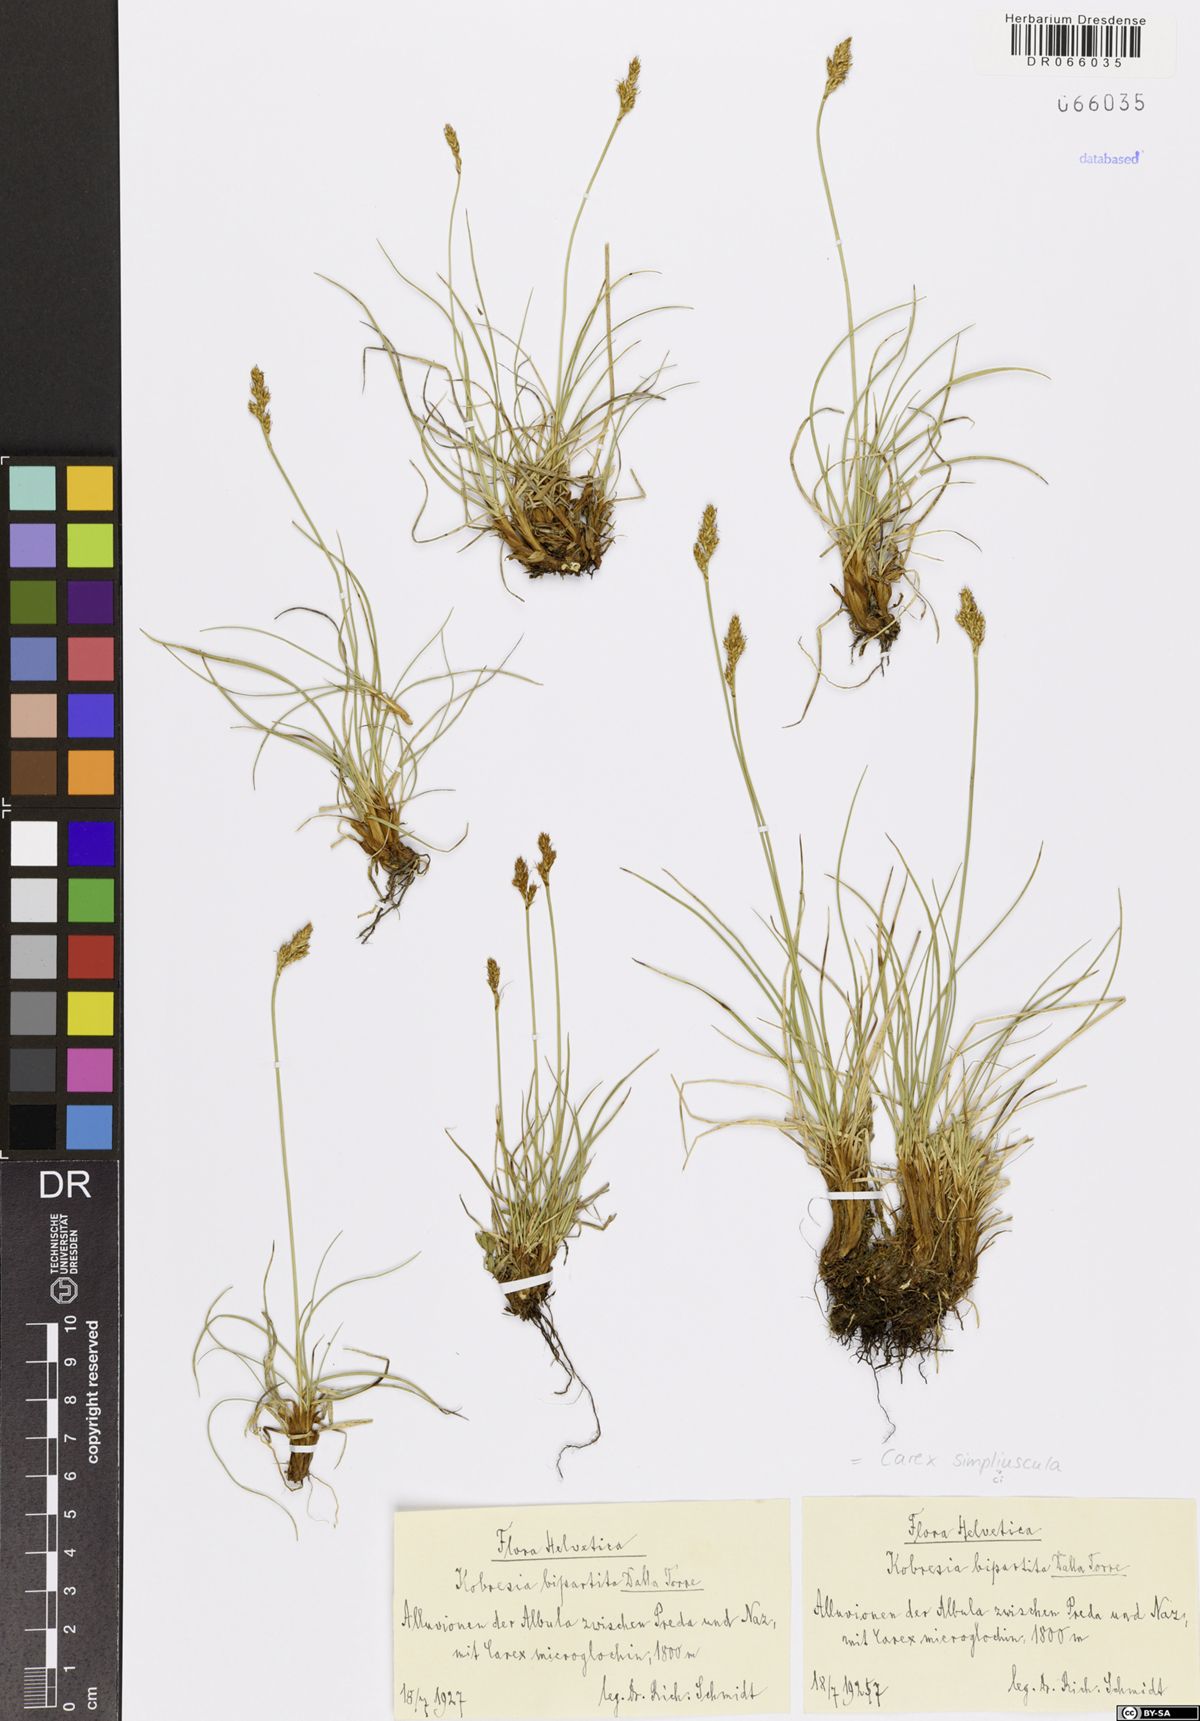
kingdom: Plantae
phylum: Tracheophyta
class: Liliopsida
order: Poales
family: Cyperaceae
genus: Carex
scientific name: Carex simpliciuscula
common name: Simple bog sedge
